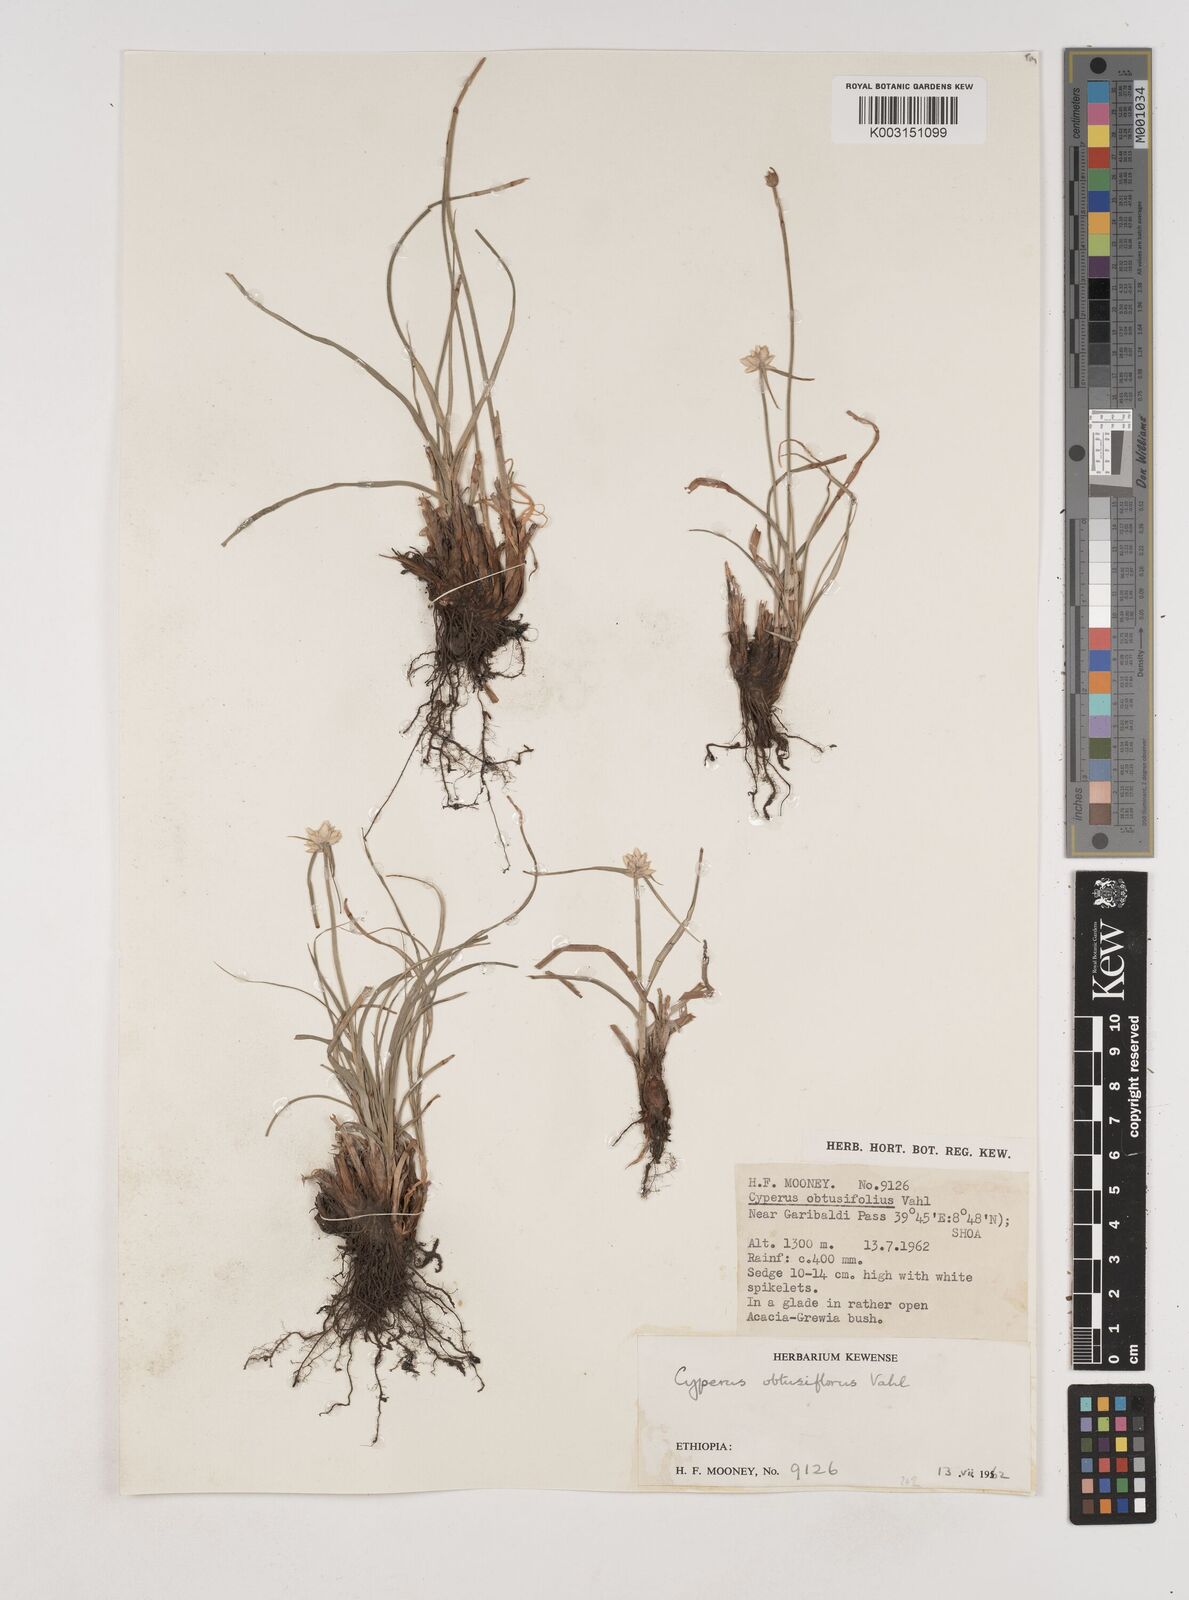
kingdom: Plantae
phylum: Tracheophyta
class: Liliopsida
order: Poales
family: Cyperaceae
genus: Cyperus
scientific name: Cyperus niveus
